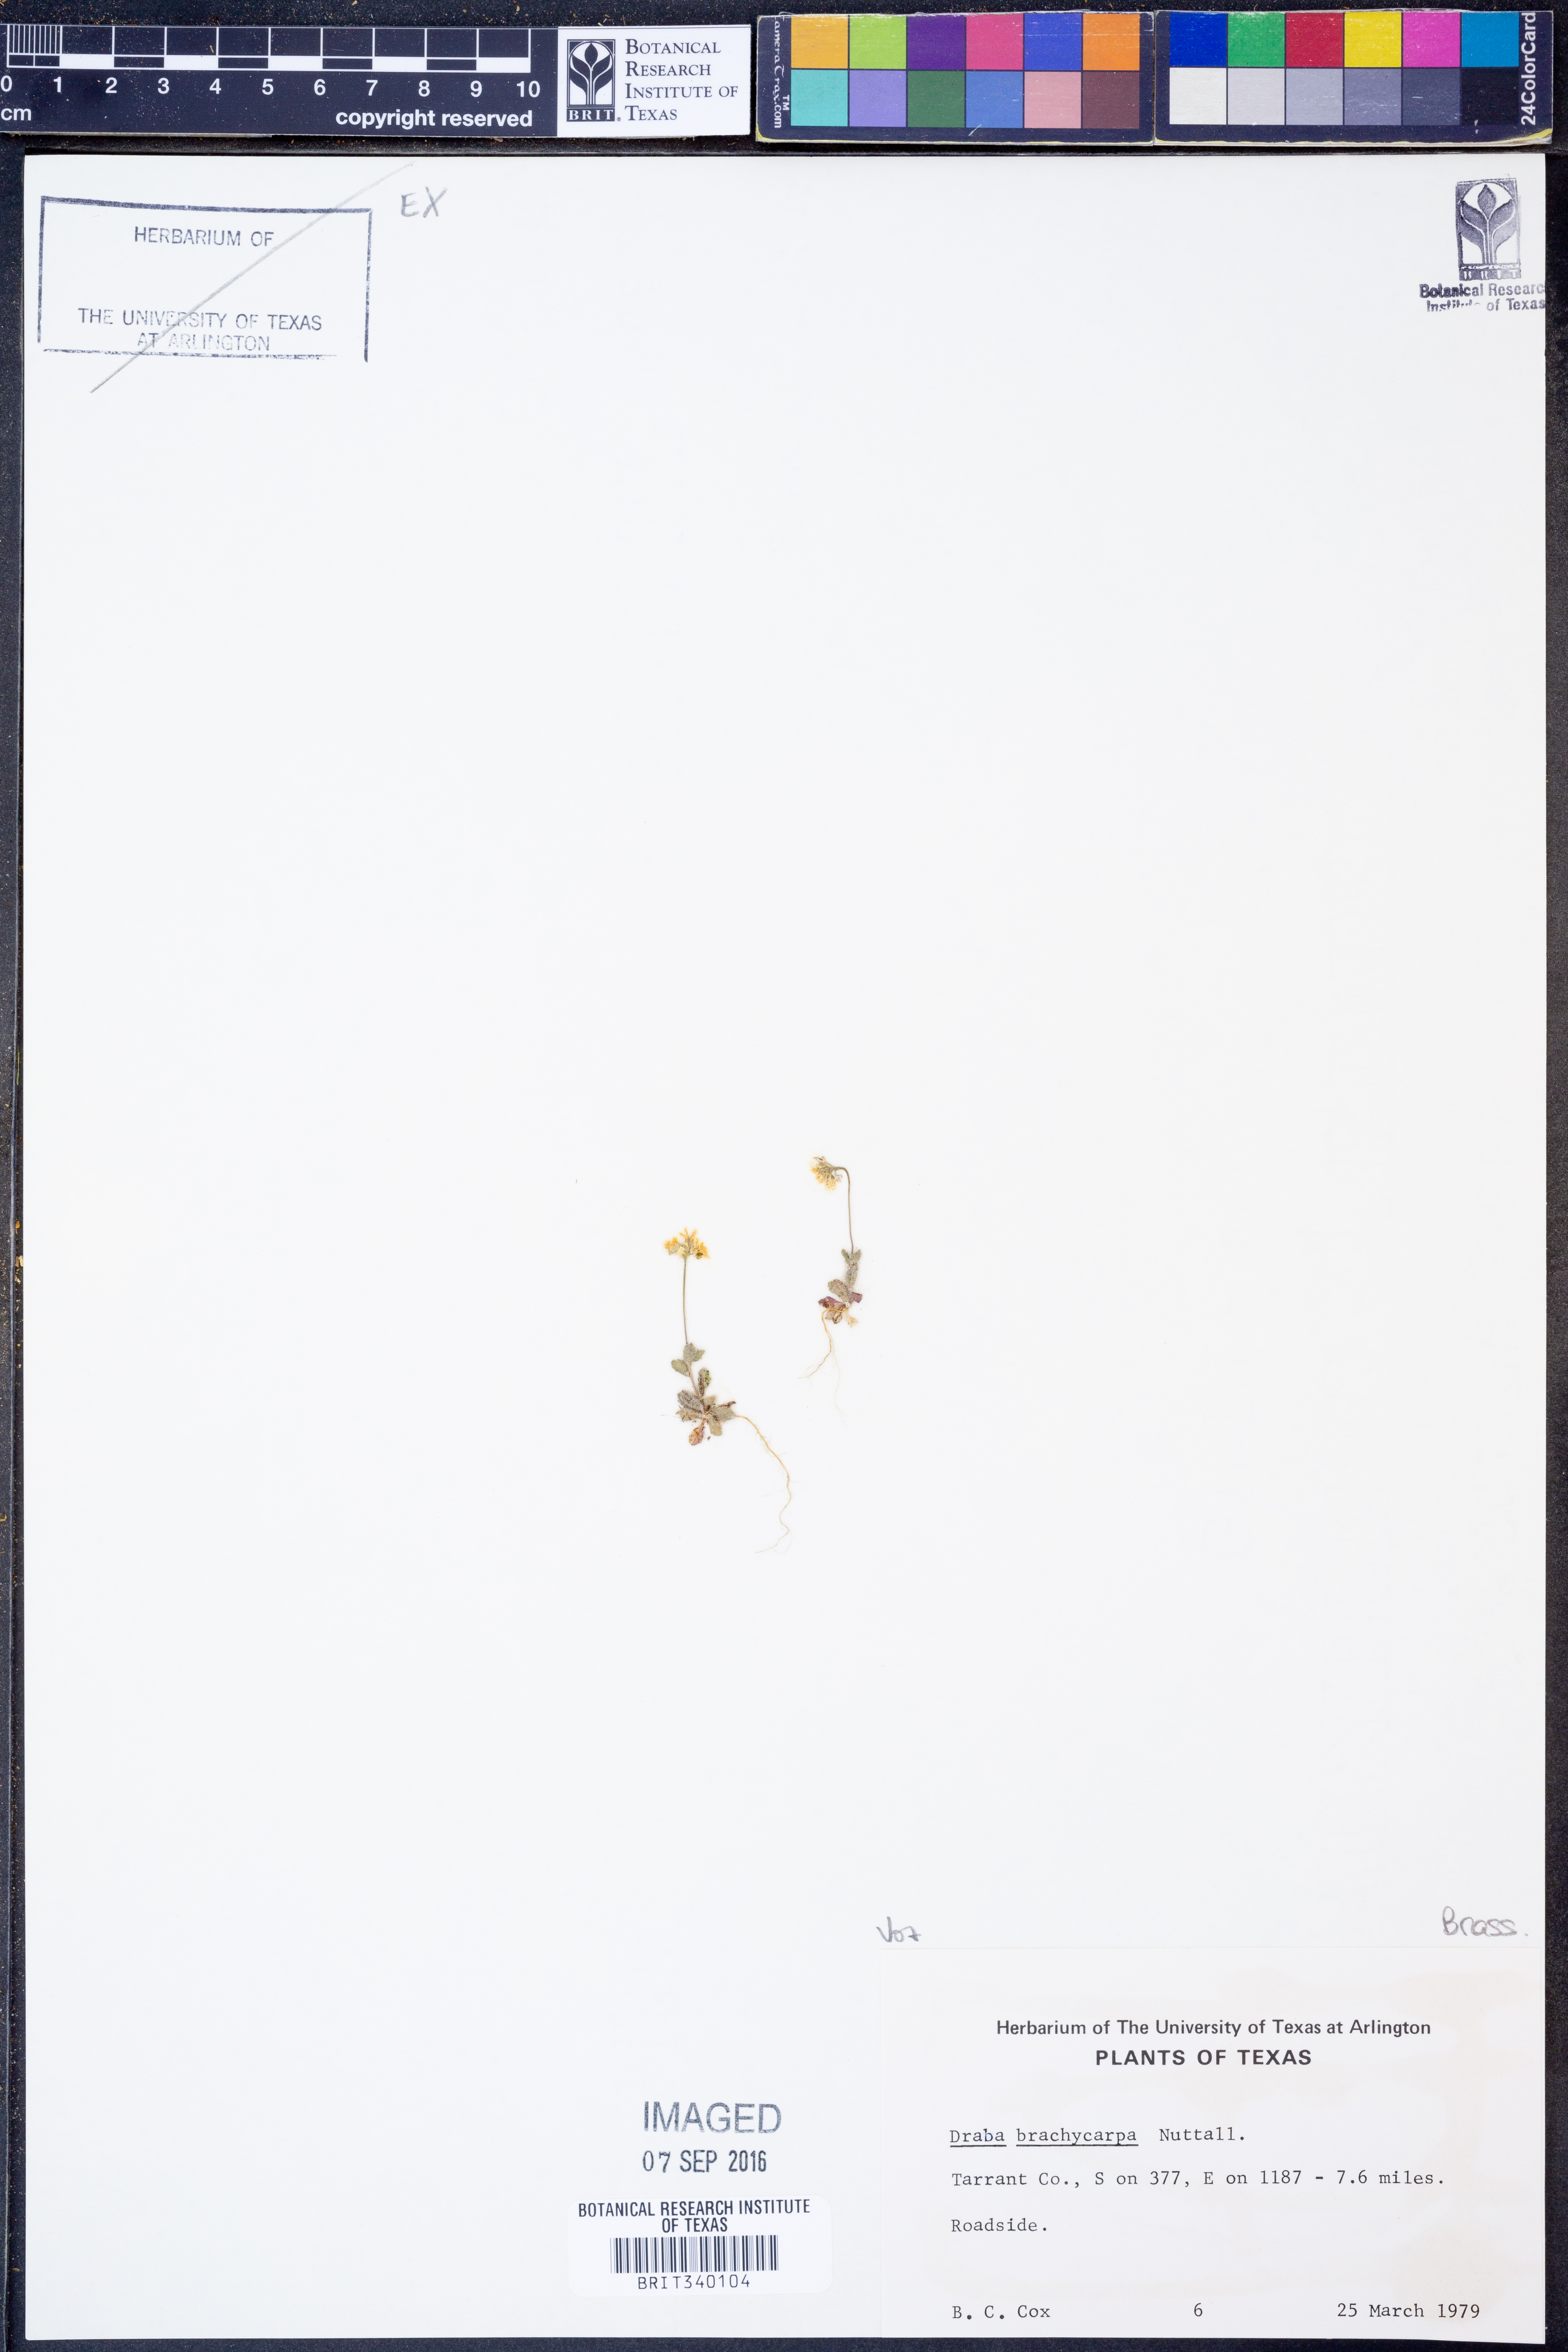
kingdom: Plantae
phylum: Tracheophyta
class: Magnoliopsida
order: Brassicales
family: Brassicaceae
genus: Abdra
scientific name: Abdra brachycarpa
